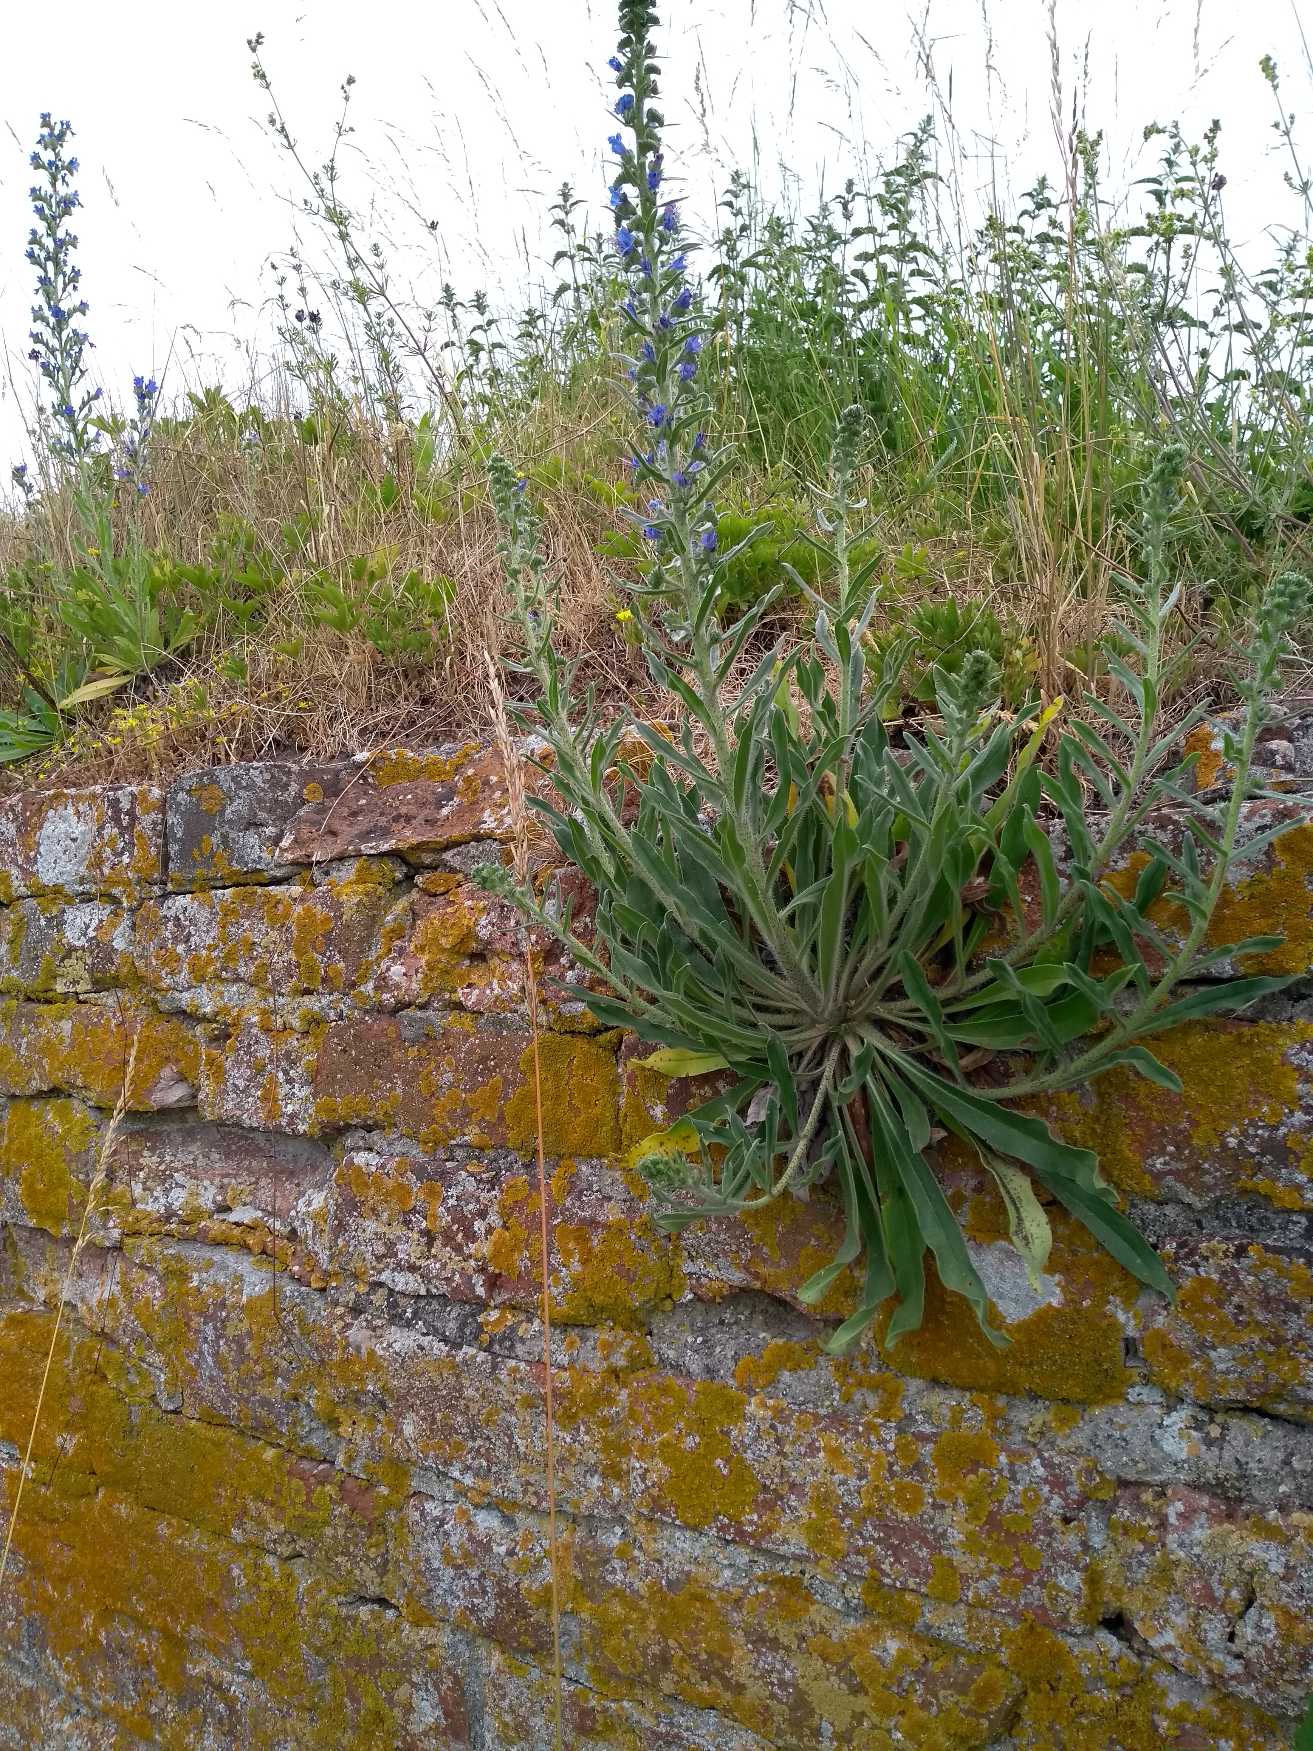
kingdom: Plantae
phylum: Tracheophyta
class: Magnoliopsida
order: Boraginales
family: Boraginaceae
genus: Echium
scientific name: Echium vulgare
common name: Slangehoved
